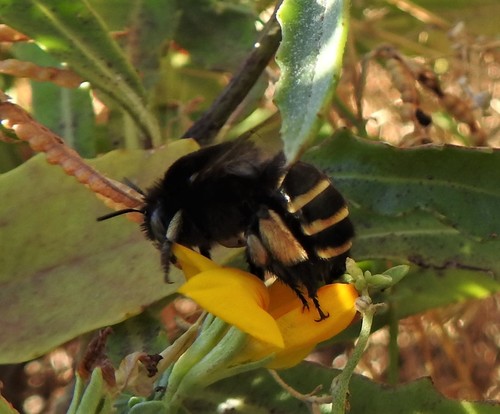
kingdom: Animalia
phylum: Arthropoda
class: Insecta
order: Hymenoptera
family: Apidae
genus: Amegilla
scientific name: Amegilla quadrifasciata
